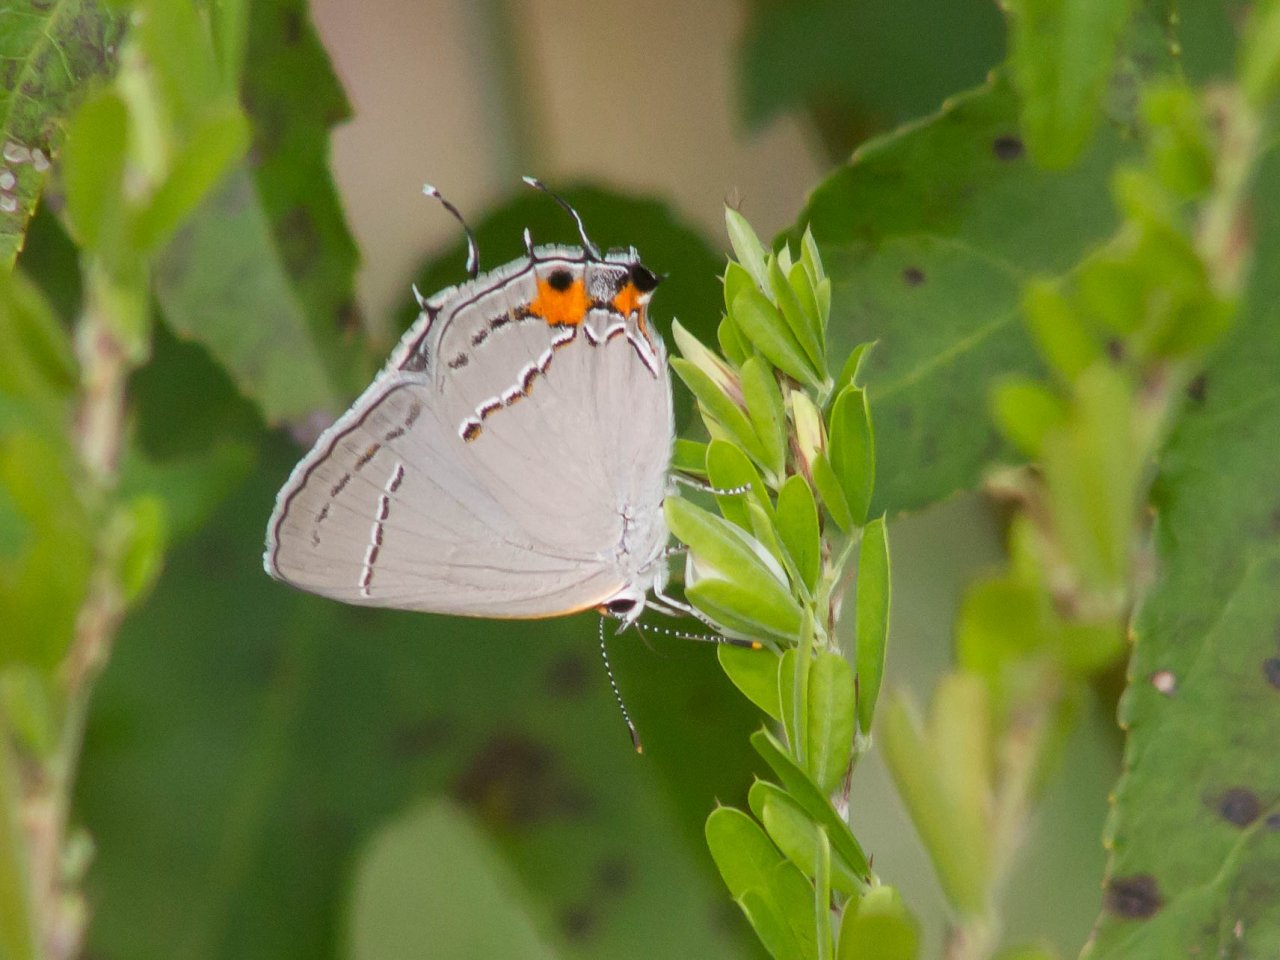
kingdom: Animalia
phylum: Arthropoda
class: Insecta
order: Lepidoptera
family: Lycaenidae
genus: Strymon
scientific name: Strymon melinus
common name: Gray Hairstreak
